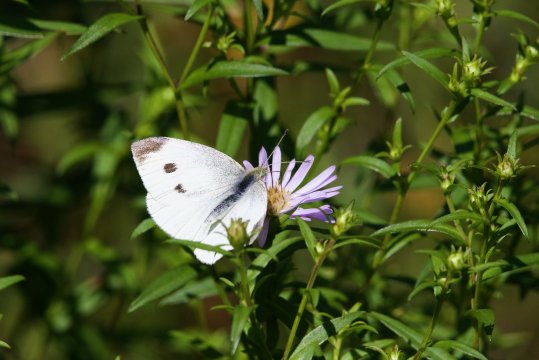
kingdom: Animalia
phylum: Arthropoda
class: Insecta
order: Lepidoptera
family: Pieridae
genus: Pieris
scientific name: Pieris rapae
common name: Cabbage White
